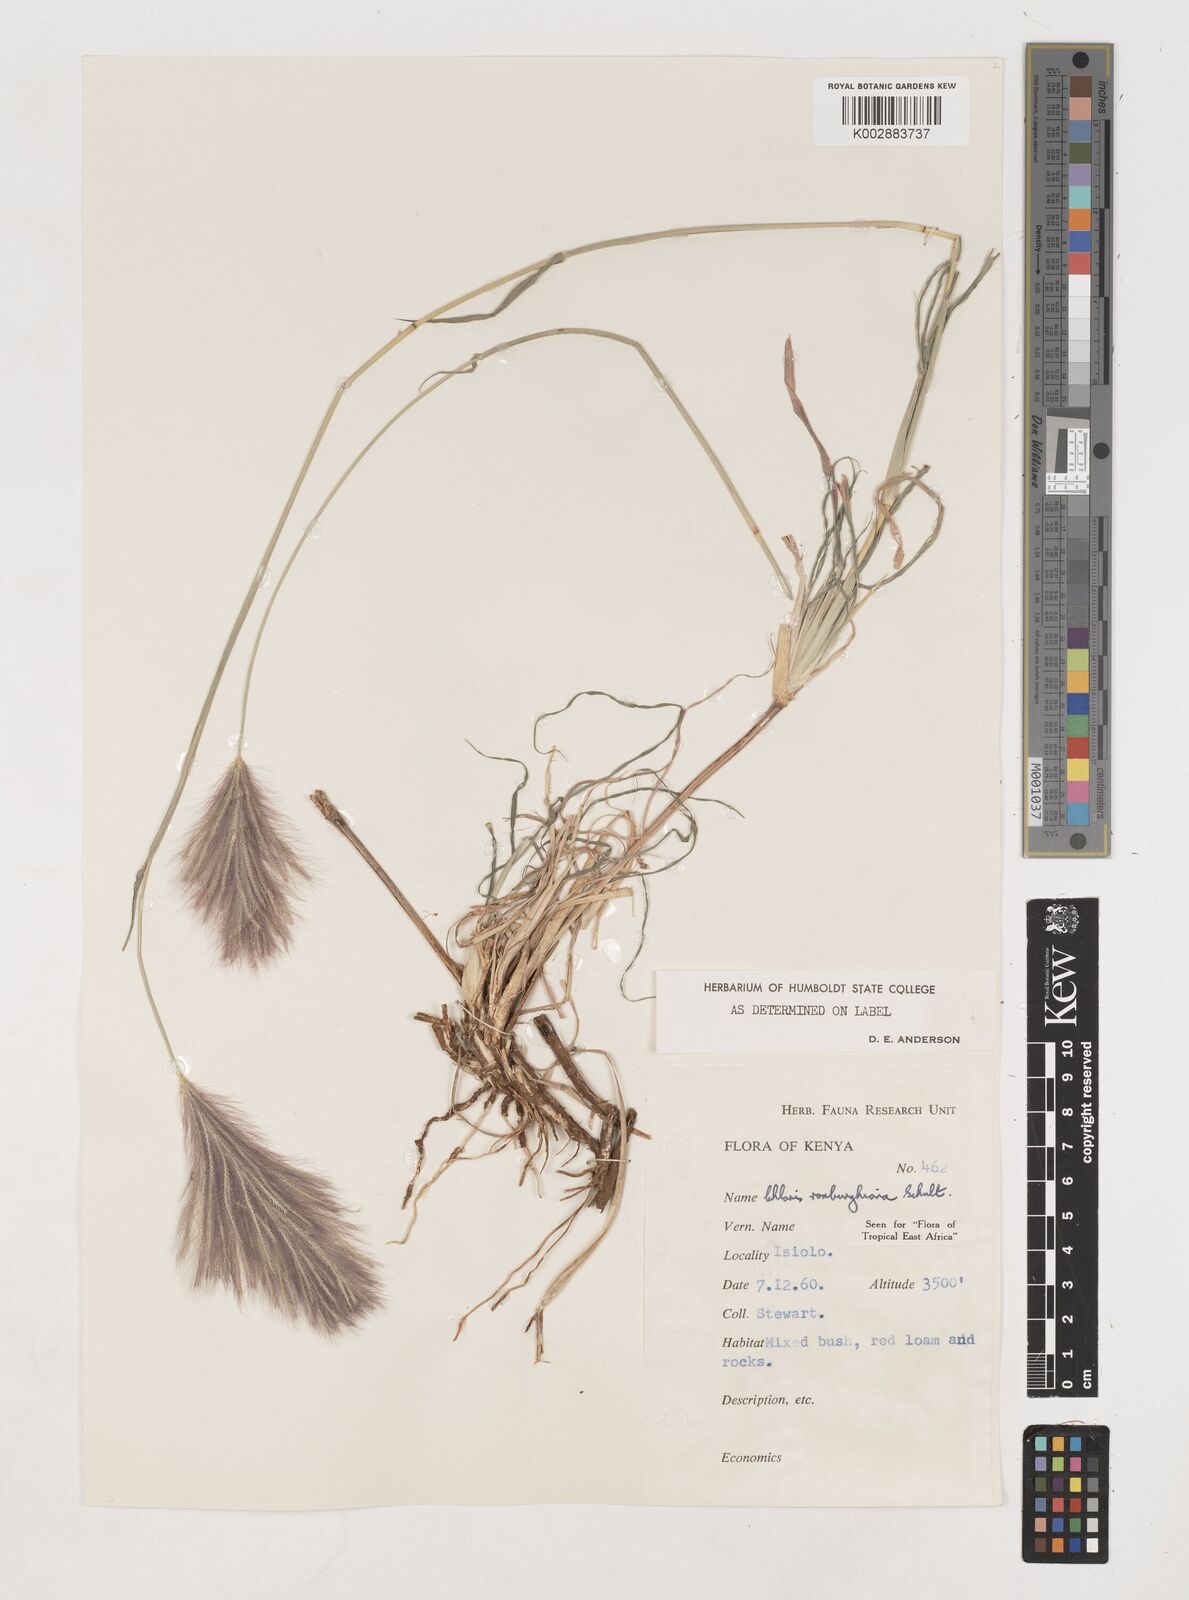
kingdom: Plantae
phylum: Tracheophyta
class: Liliopsida
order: Poales
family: Poaceae
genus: Tetrapogon
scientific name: Tetrapogon roxburghiana
